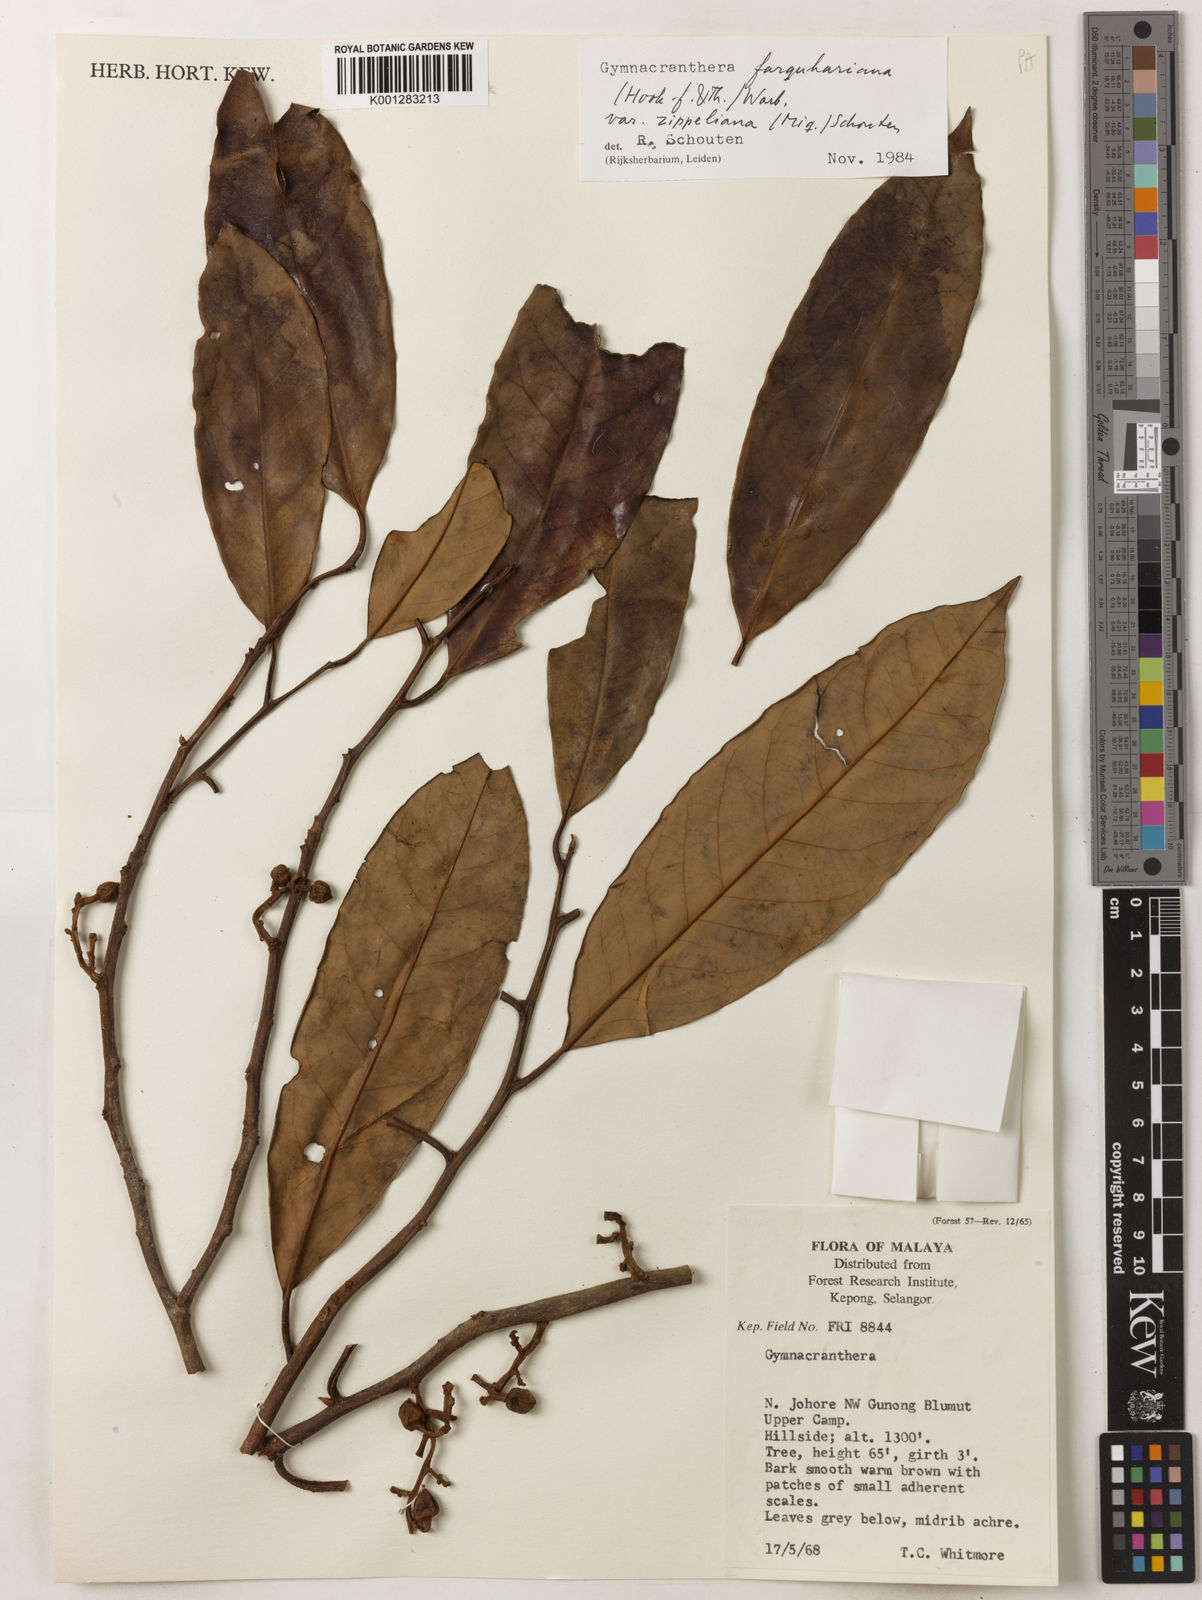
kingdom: Plantae
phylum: Tracheophyta
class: Magnoliopsida
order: Magnoliales
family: Myristicaceae
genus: Gymnacranthera
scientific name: Gymnacranthera farquhariana
